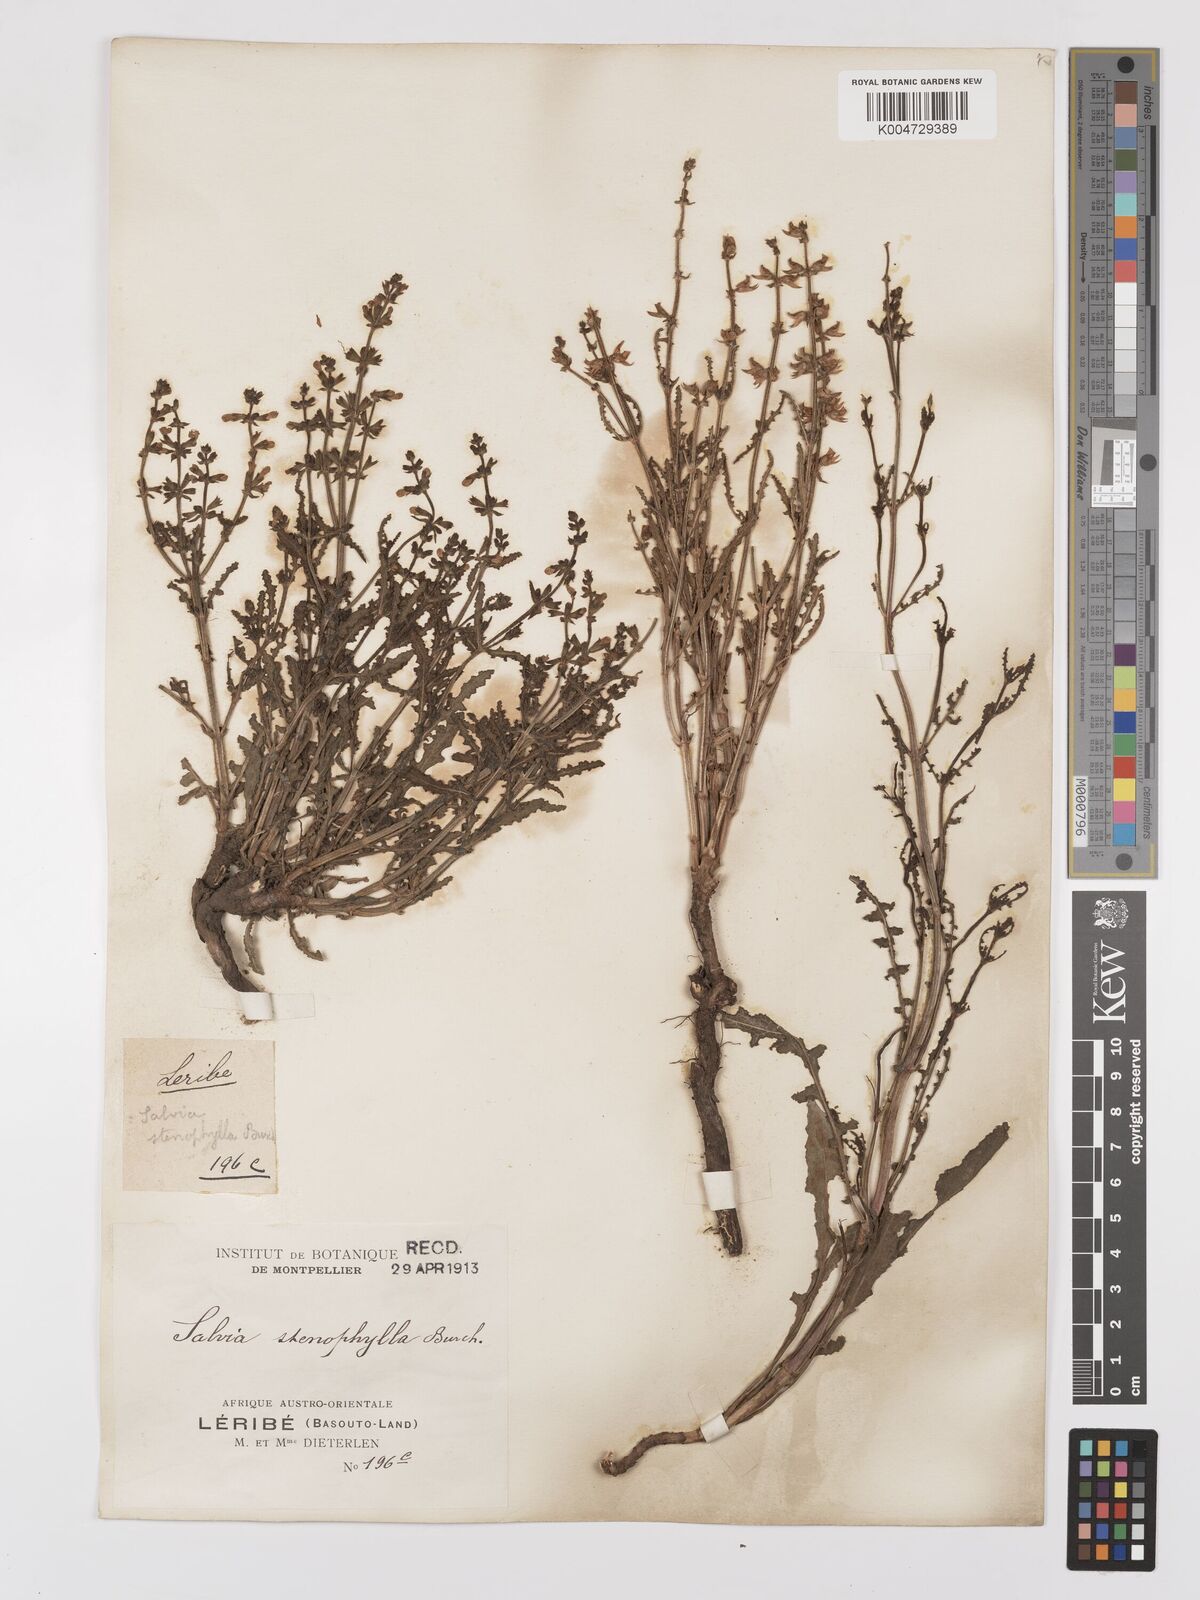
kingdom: Plantae
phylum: Tracheophyta
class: Magnoliopsida
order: Lamiales
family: Lamiaceae
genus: Salvia
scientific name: Salvia stenophylla
